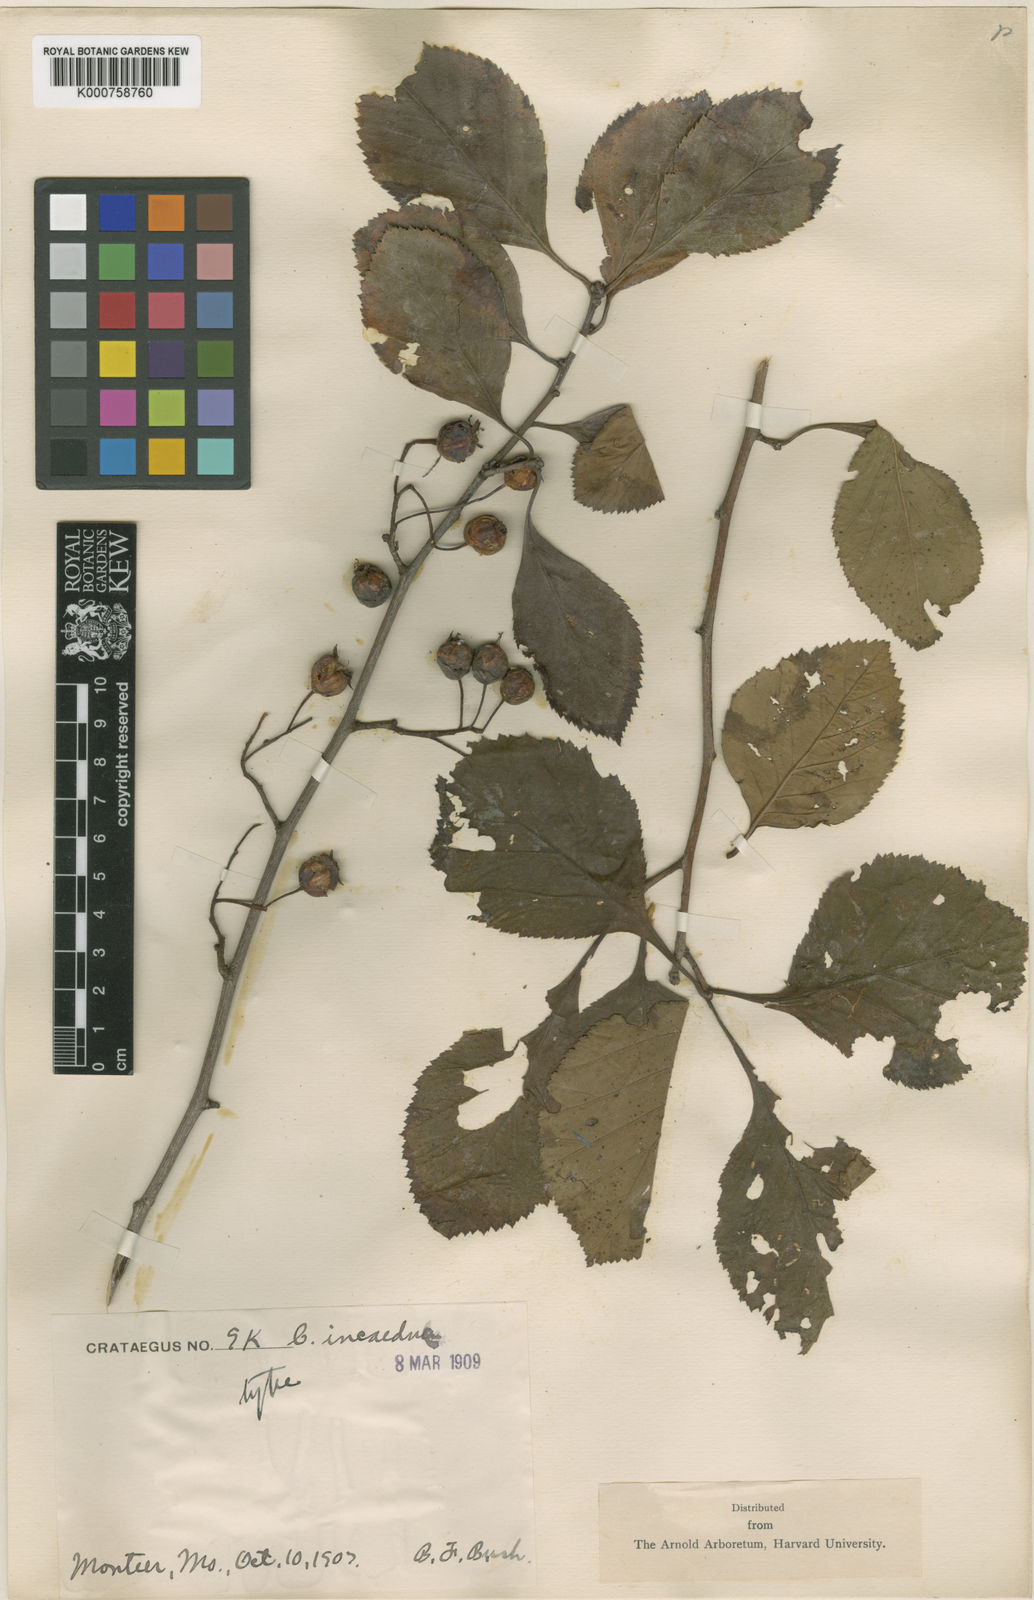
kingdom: Plantae
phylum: Tracheophyta
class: Magnoliopsida
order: Rosales
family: Rosaceae
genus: Crataegus
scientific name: Crataegus incaedua
